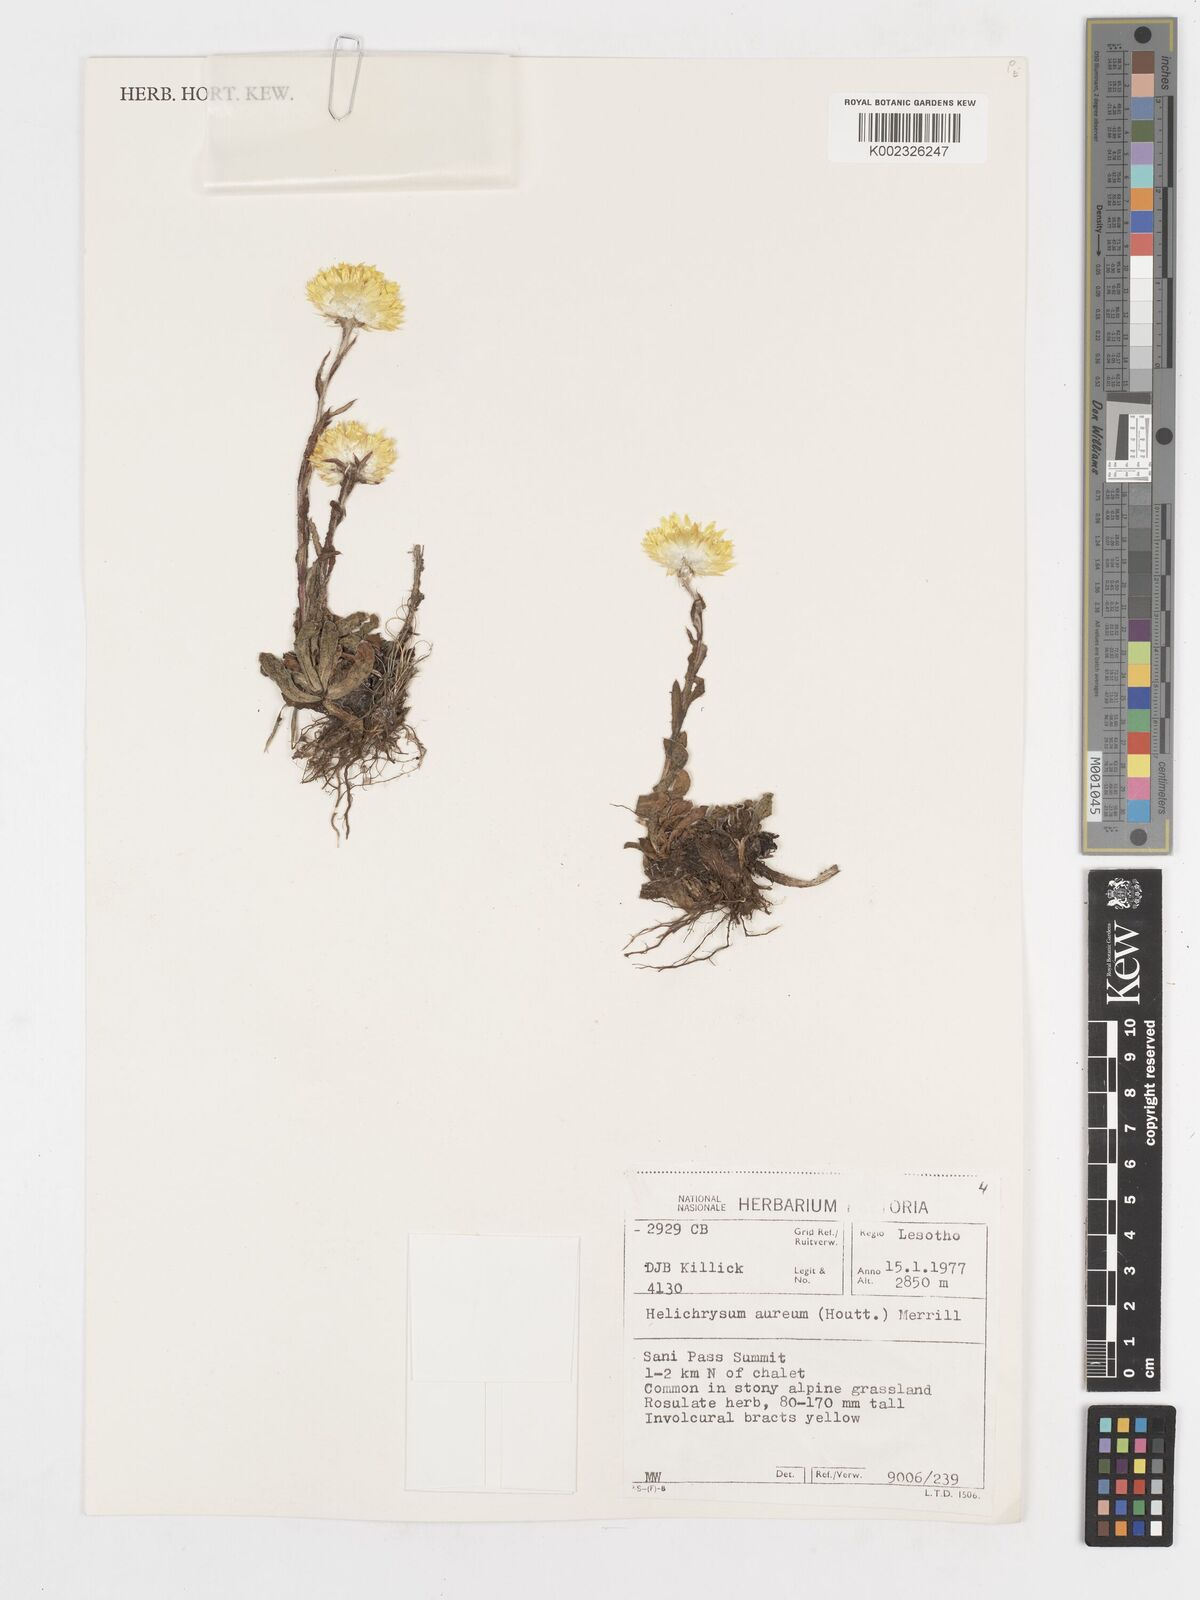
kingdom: Plantae
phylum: Tracheophyta
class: Magnoliopsida
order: Asterales
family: Asteraceae
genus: Helichrysum
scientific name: Helichrysum aureum
